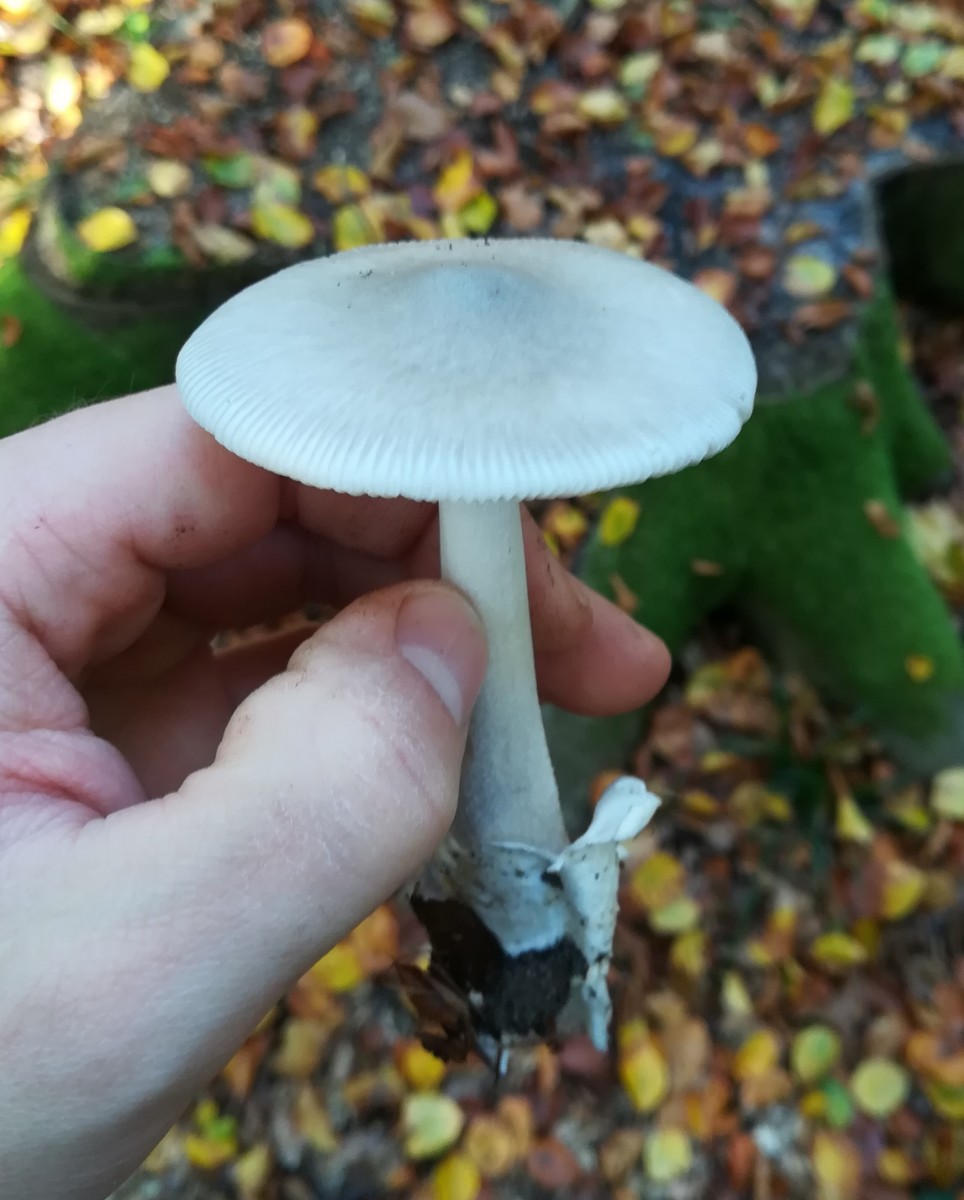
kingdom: Fungi
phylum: Basidiomycota
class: Agaricomycetes
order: Agaricales
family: Amanitaceae
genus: Amanita
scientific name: Amanita vaginata
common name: grå kam-fluesvamp
